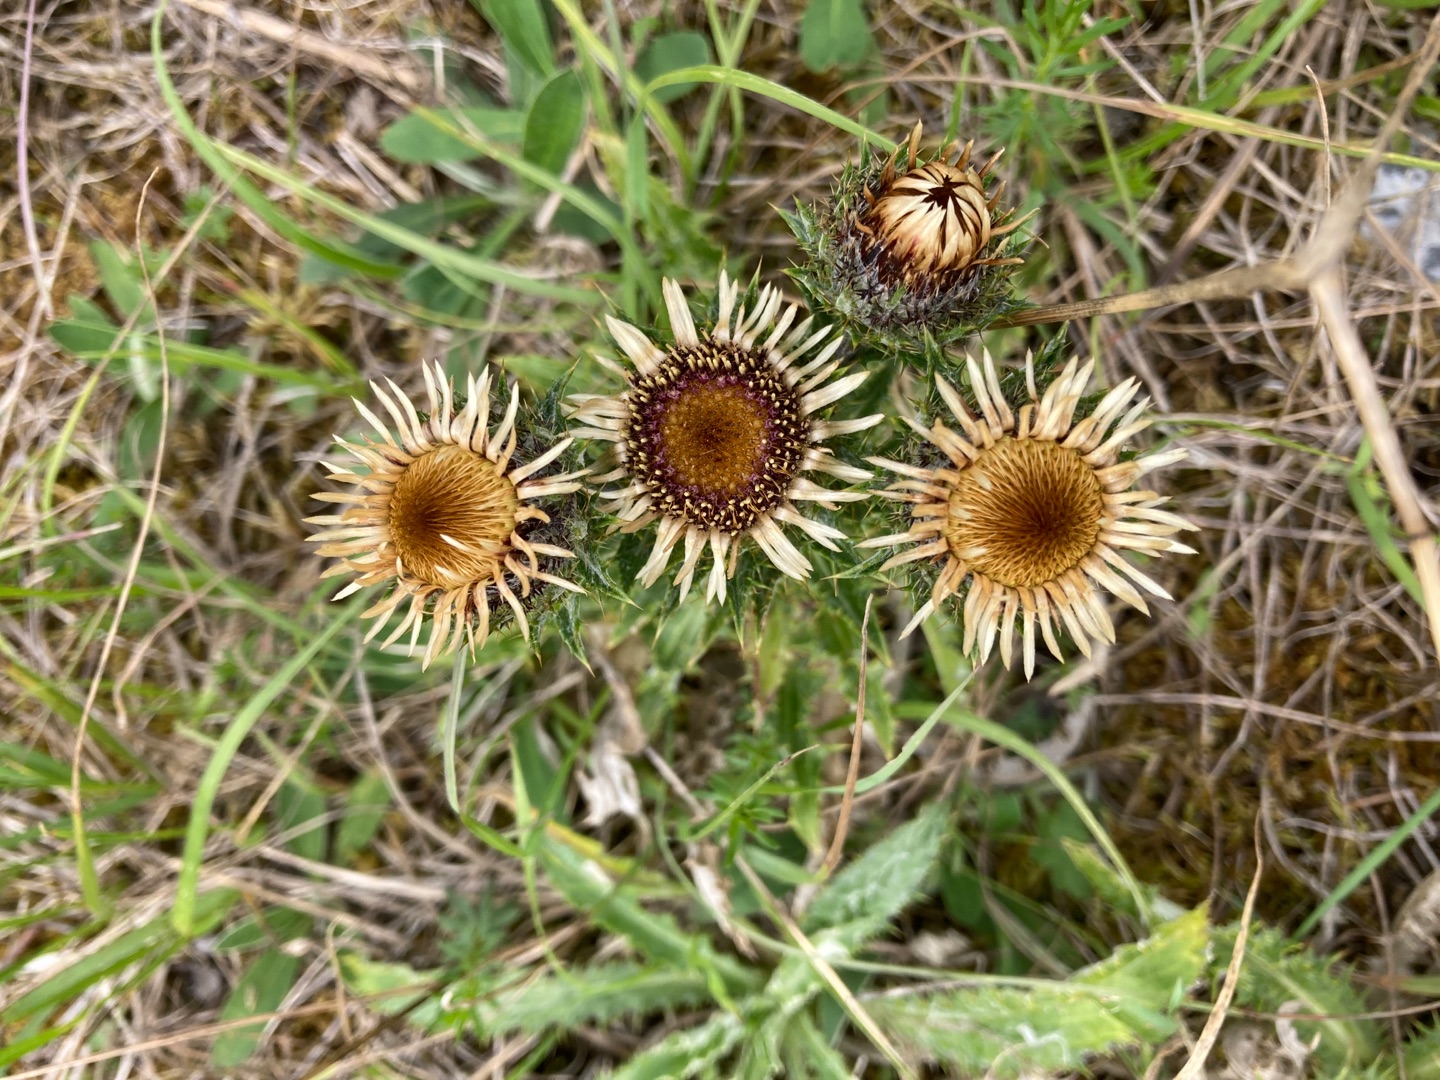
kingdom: Plantae
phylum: Tracheophyta
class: Magnoliopsida
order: Asterales
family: Asteraceae
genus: Carlina
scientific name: Carlina vulgaris
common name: Bakketidsel
